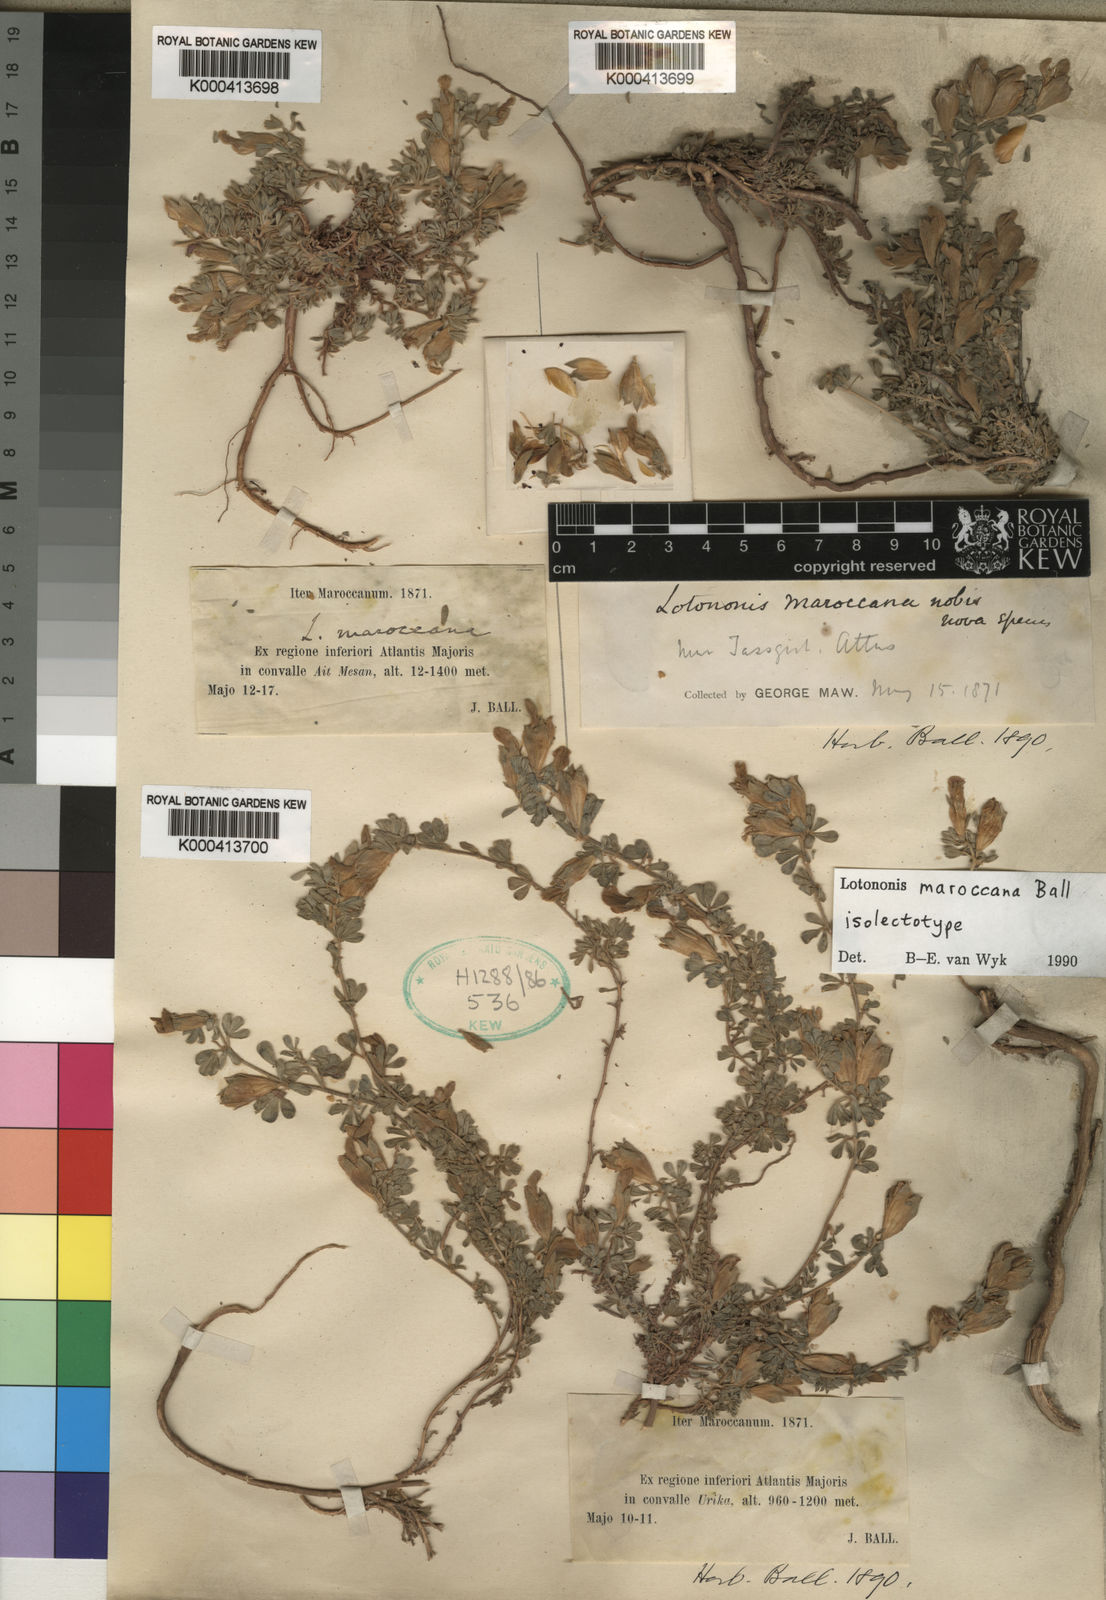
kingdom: Plantae
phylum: Tracheophyta
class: Magnoliopsida
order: Fabales
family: Fabaceae
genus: Leobordea
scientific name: Leobordea maroccana
